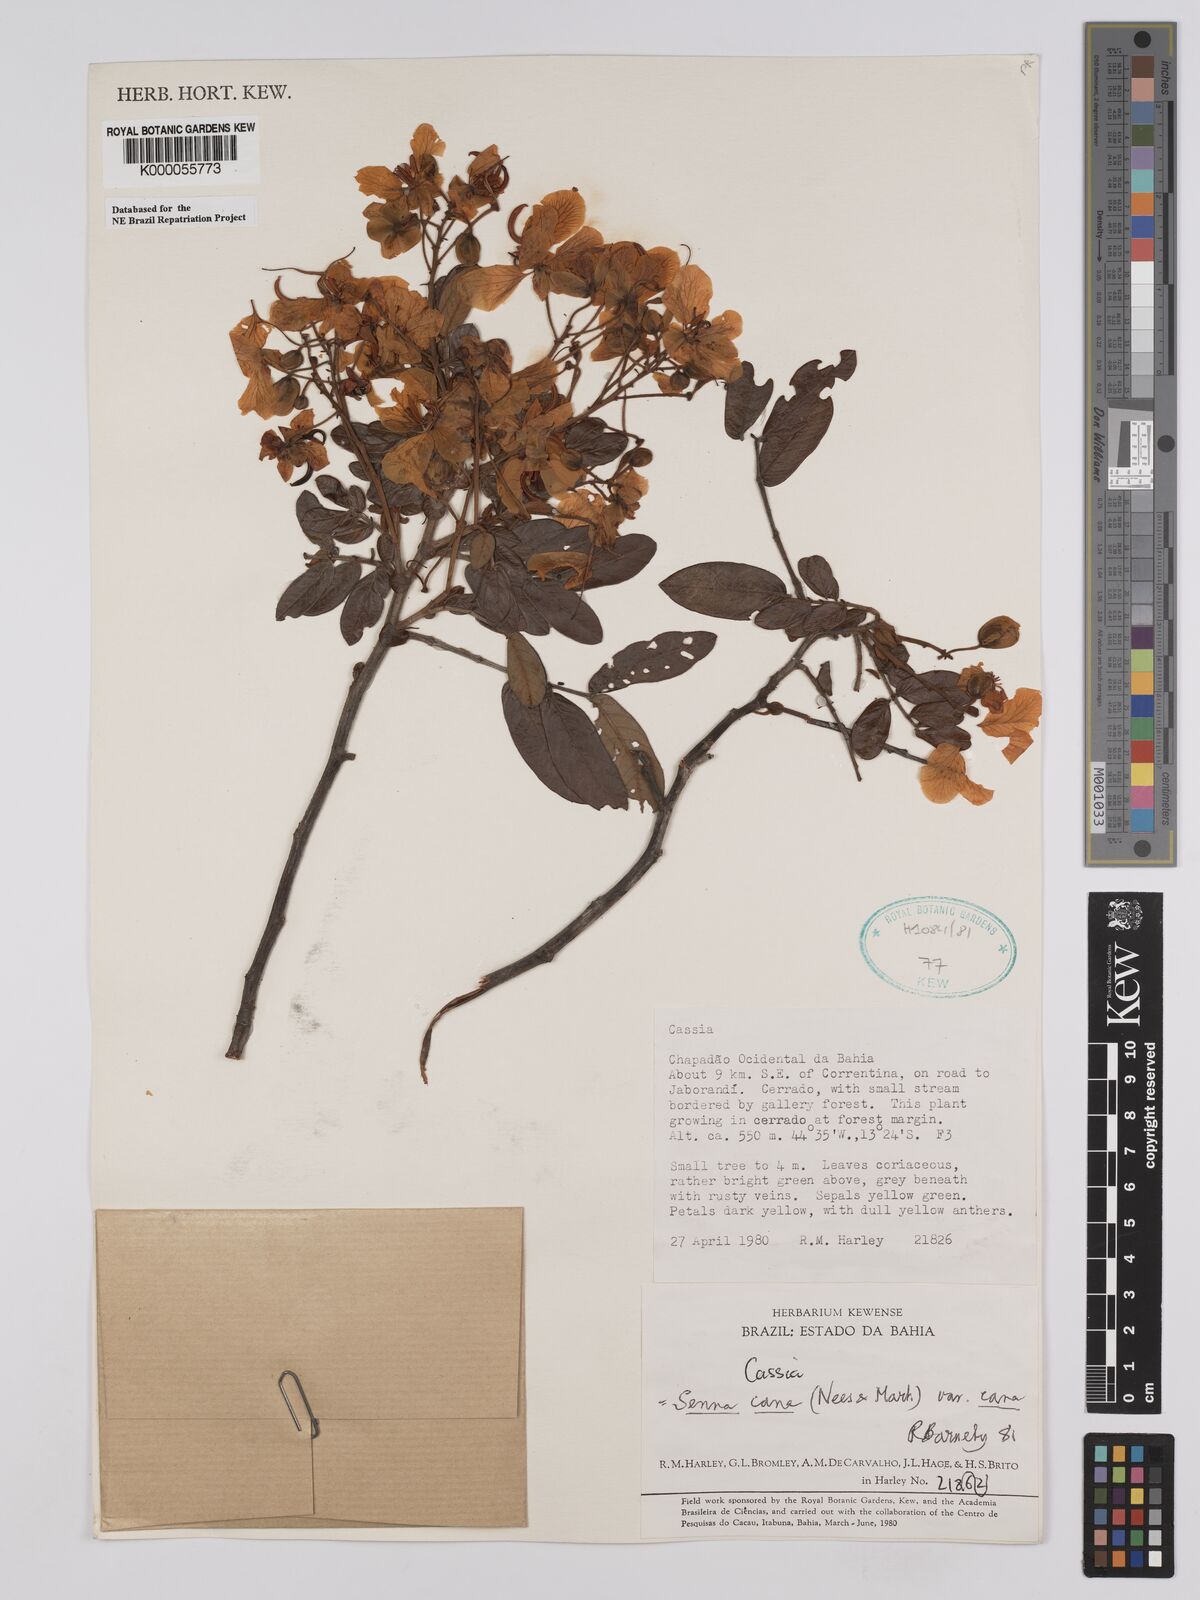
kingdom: Plantae
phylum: Tracheophyta
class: Magnoliopsida
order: Fabales
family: Fabaceae
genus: Senna
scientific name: Senna cana
